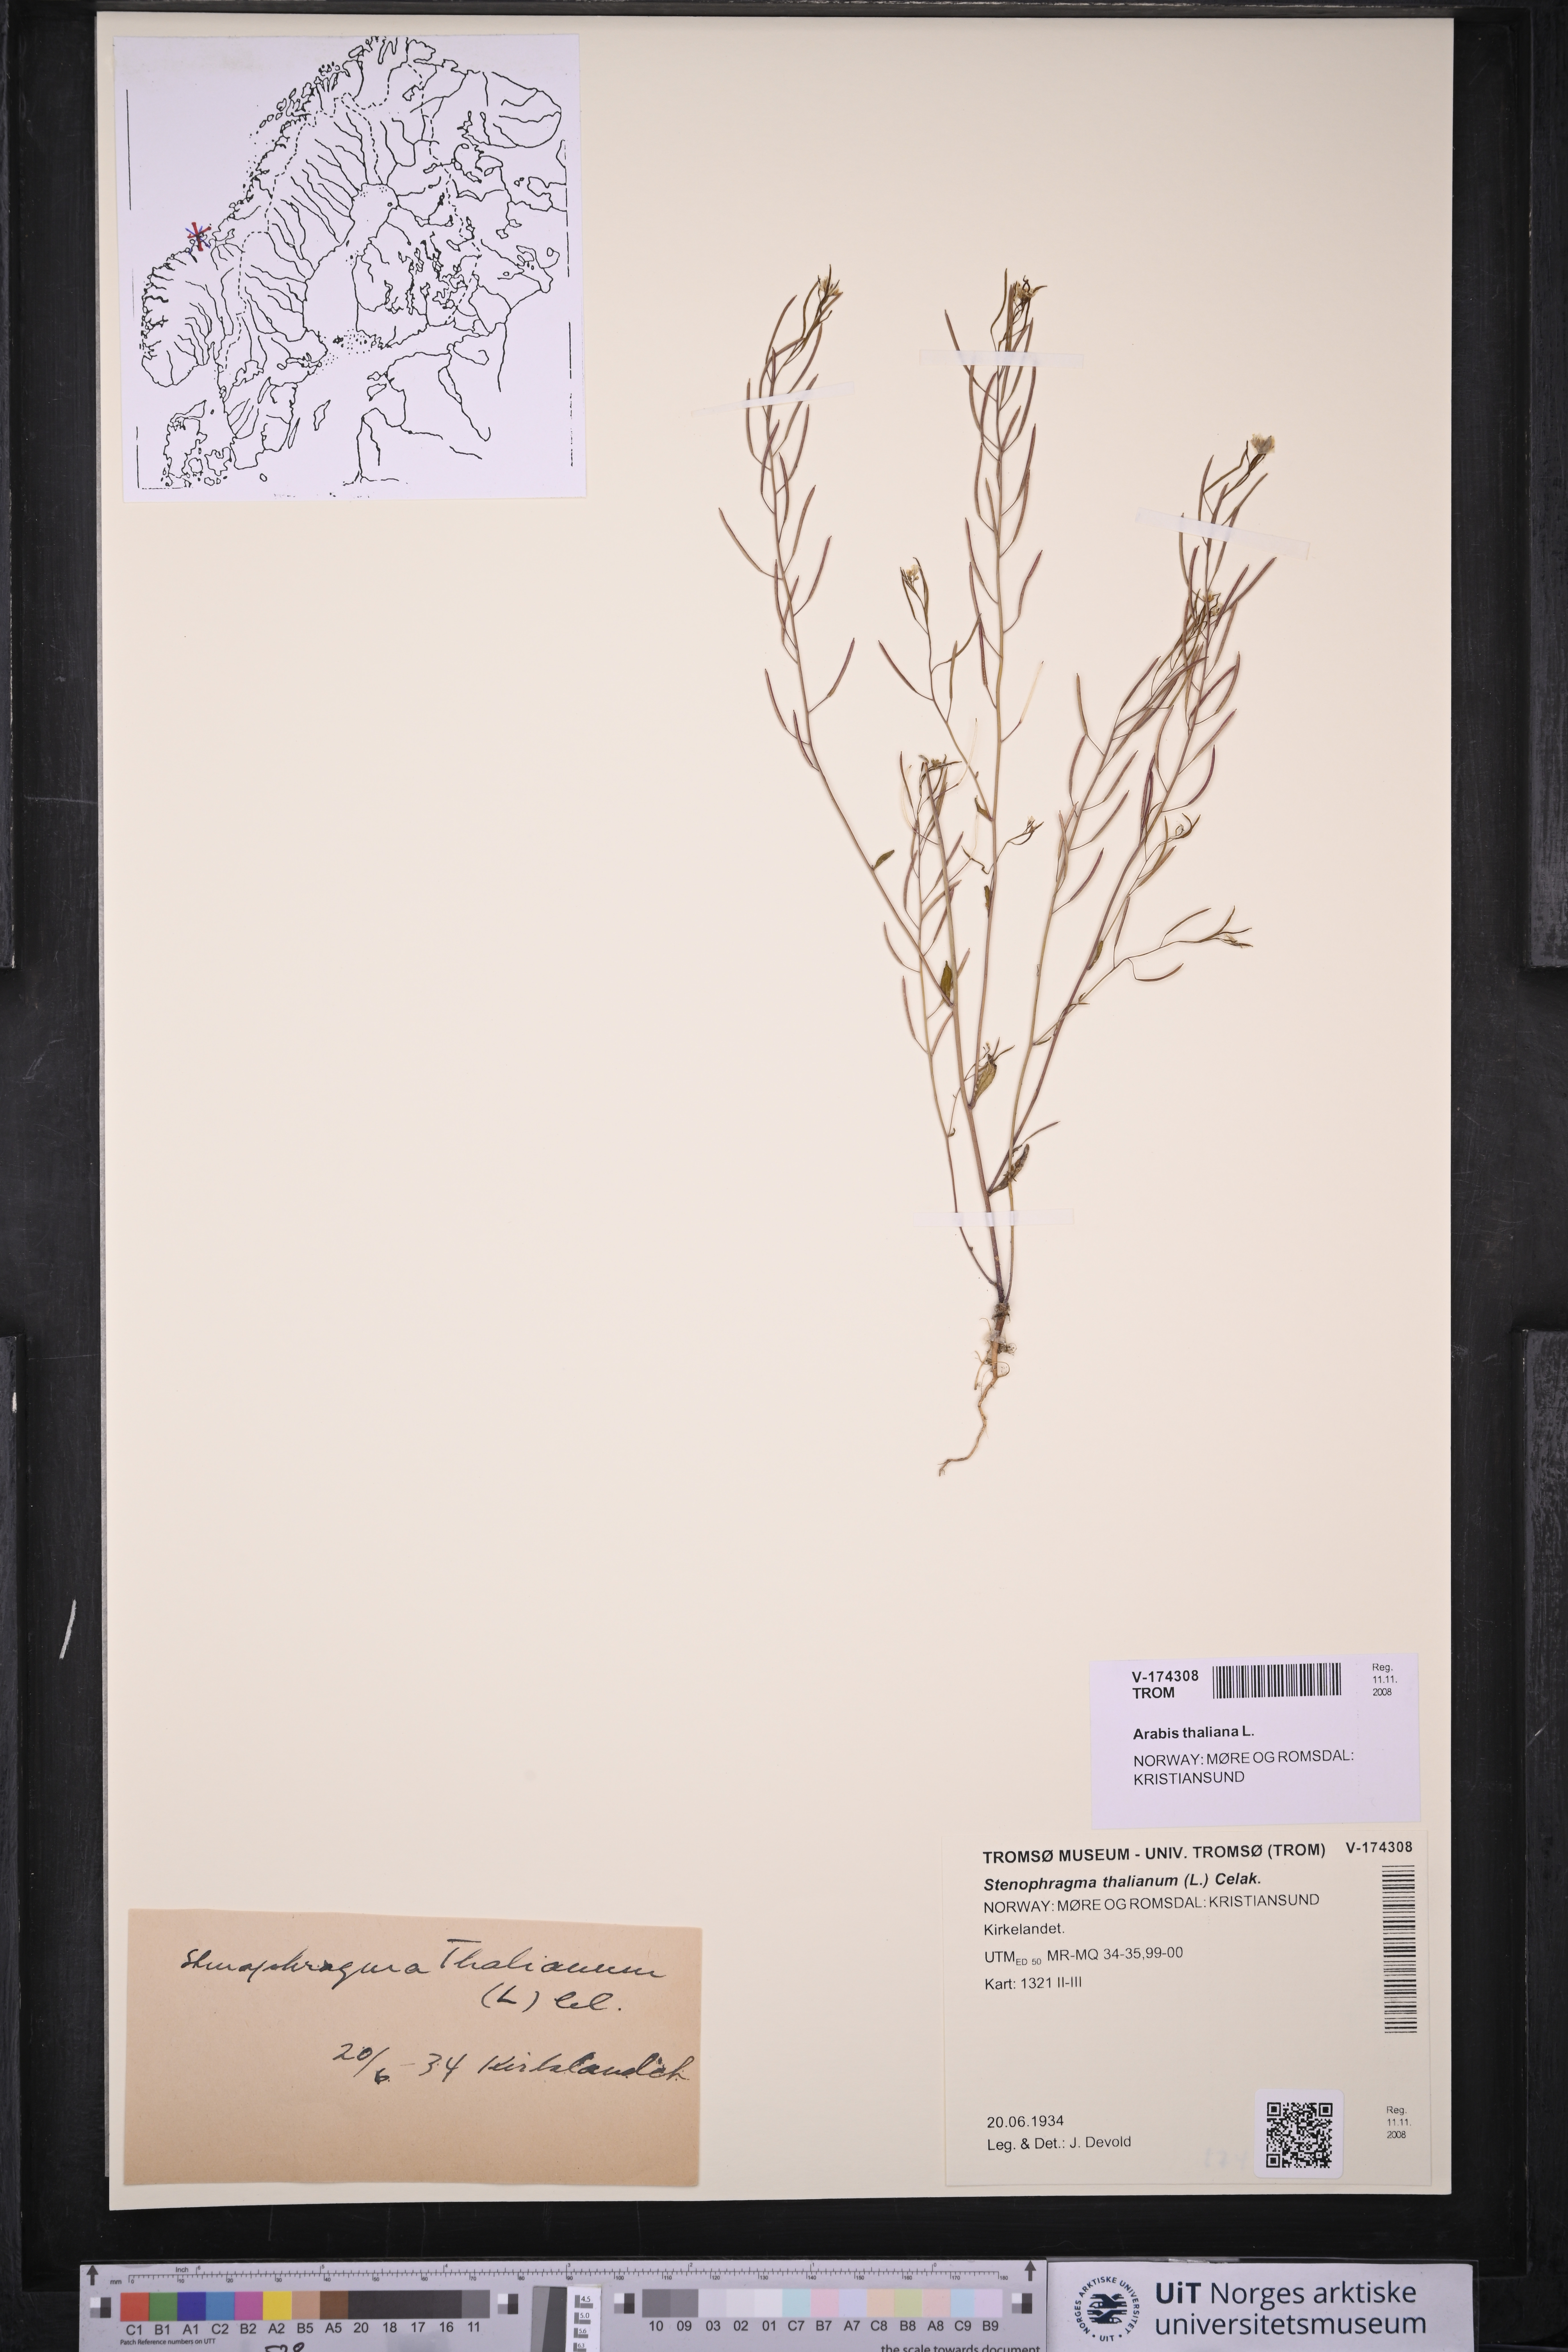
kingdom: Plantae
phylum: Tracheophyta
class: Magnoliopsida
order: Brassicales
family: Brassicaceae
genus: Arabidopsis
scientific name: Arabidopsis thaliana
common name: Thale cress
